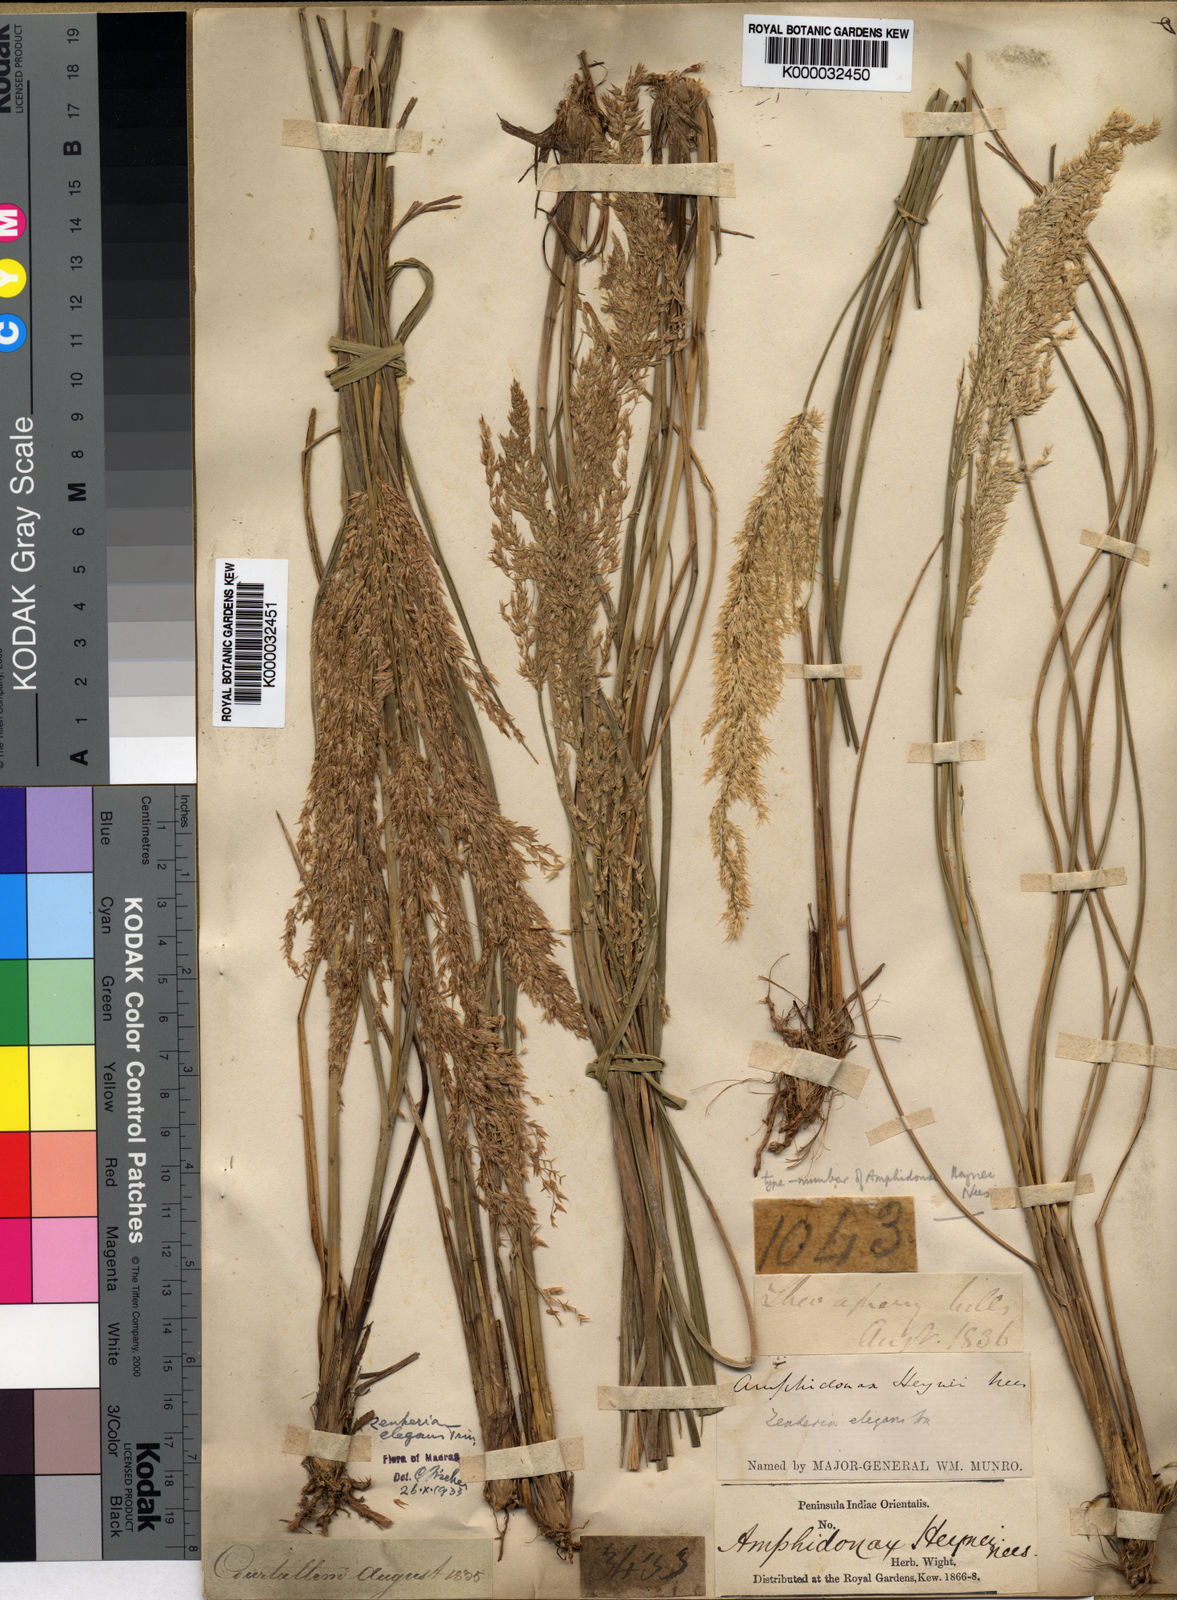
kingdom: Plantae
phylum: Tracheophyta
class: Liliopsida
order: Poales
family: Poaceae
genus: Zenkeria
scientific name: Zenkeria elegans
